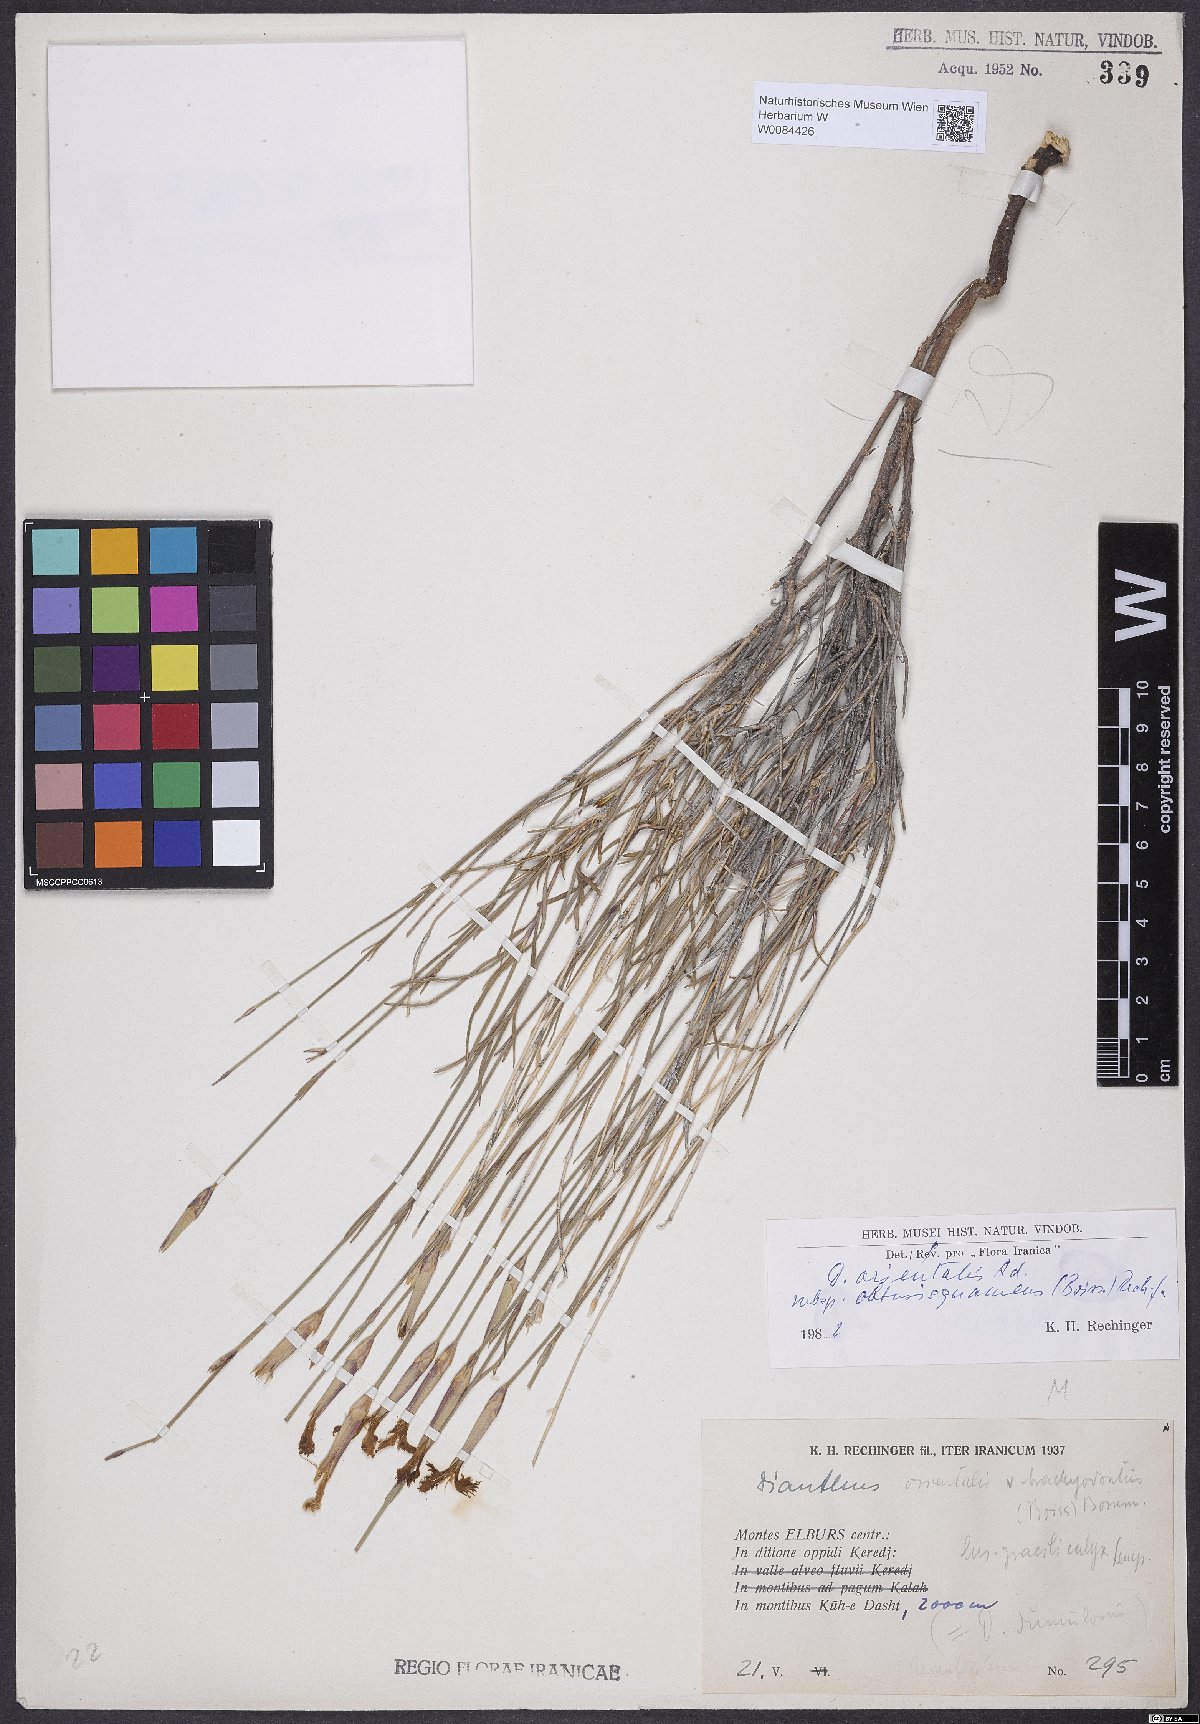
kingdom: Plantae
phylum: Tracheophyta
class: Magnoliopsida
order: Caryophyllales
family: Caryophyllaceae
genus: Dianthus
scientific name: Dianthus orientalis
